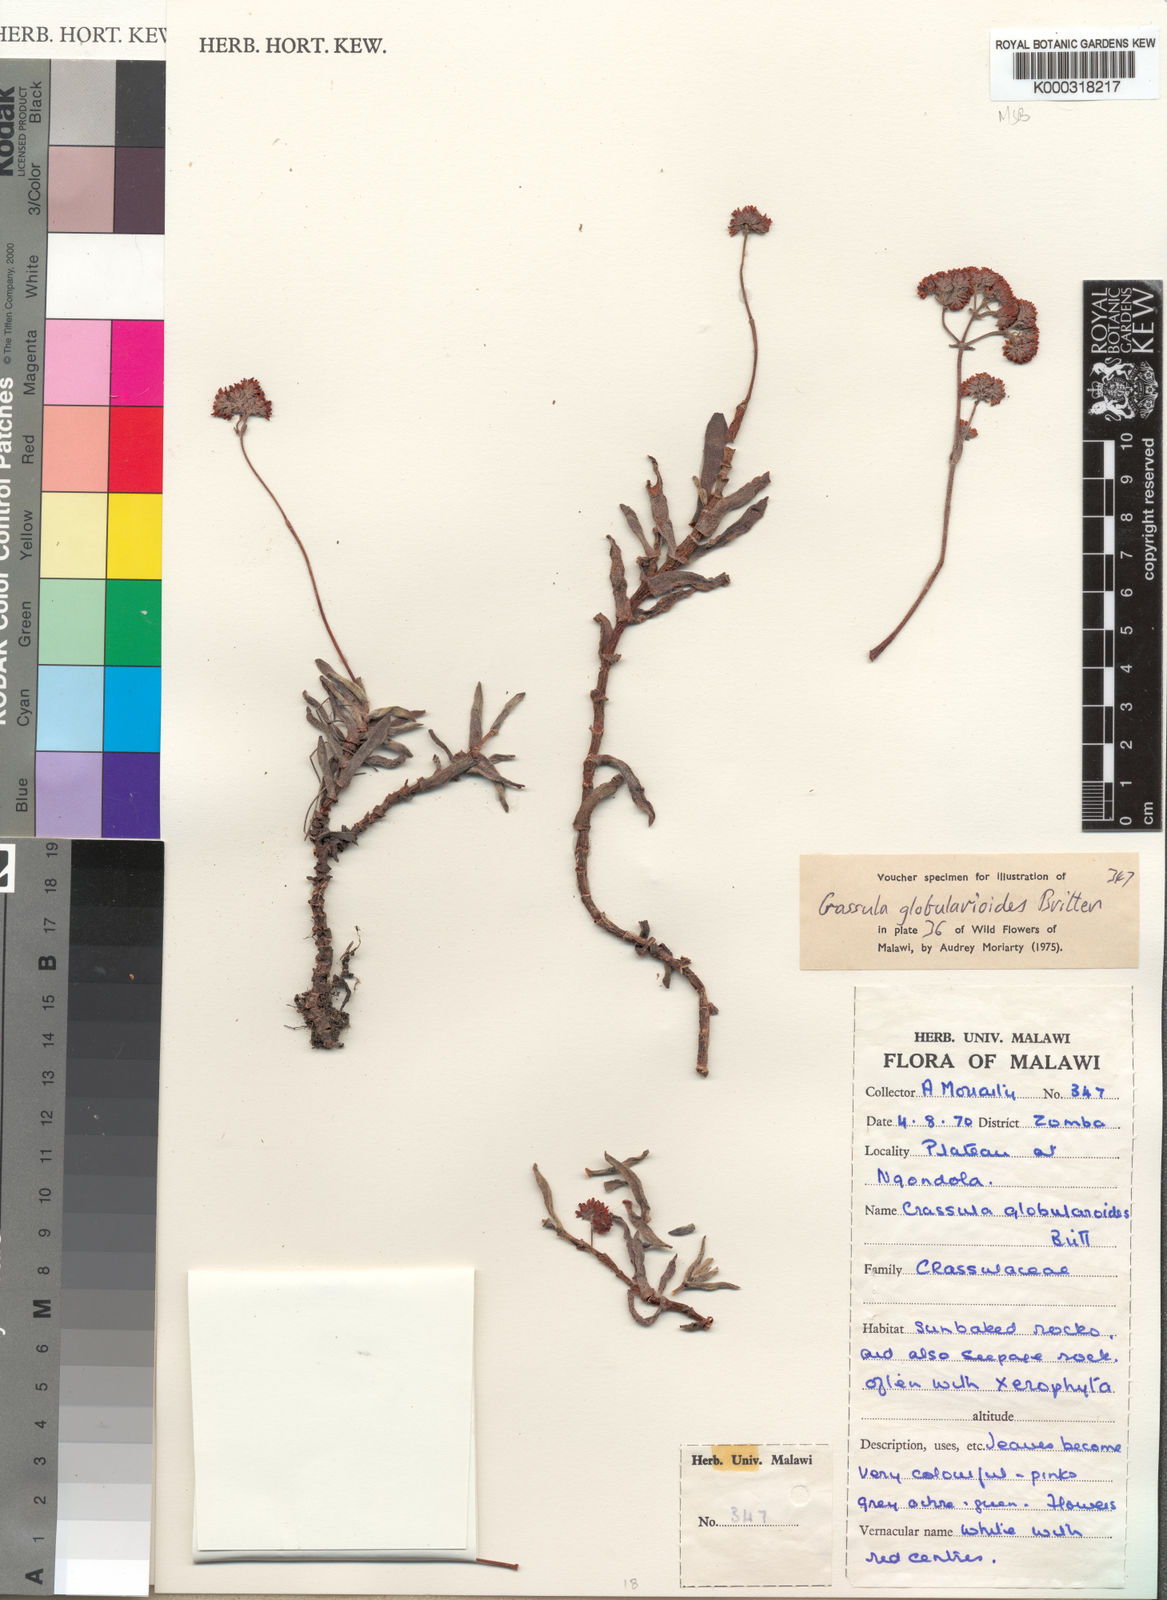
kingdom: Plantae
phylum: Tracheophyta
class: Magnoliopsida
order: Saxifragales
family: Crassulaceae
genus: Crassula
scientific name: Crassula globularioides
